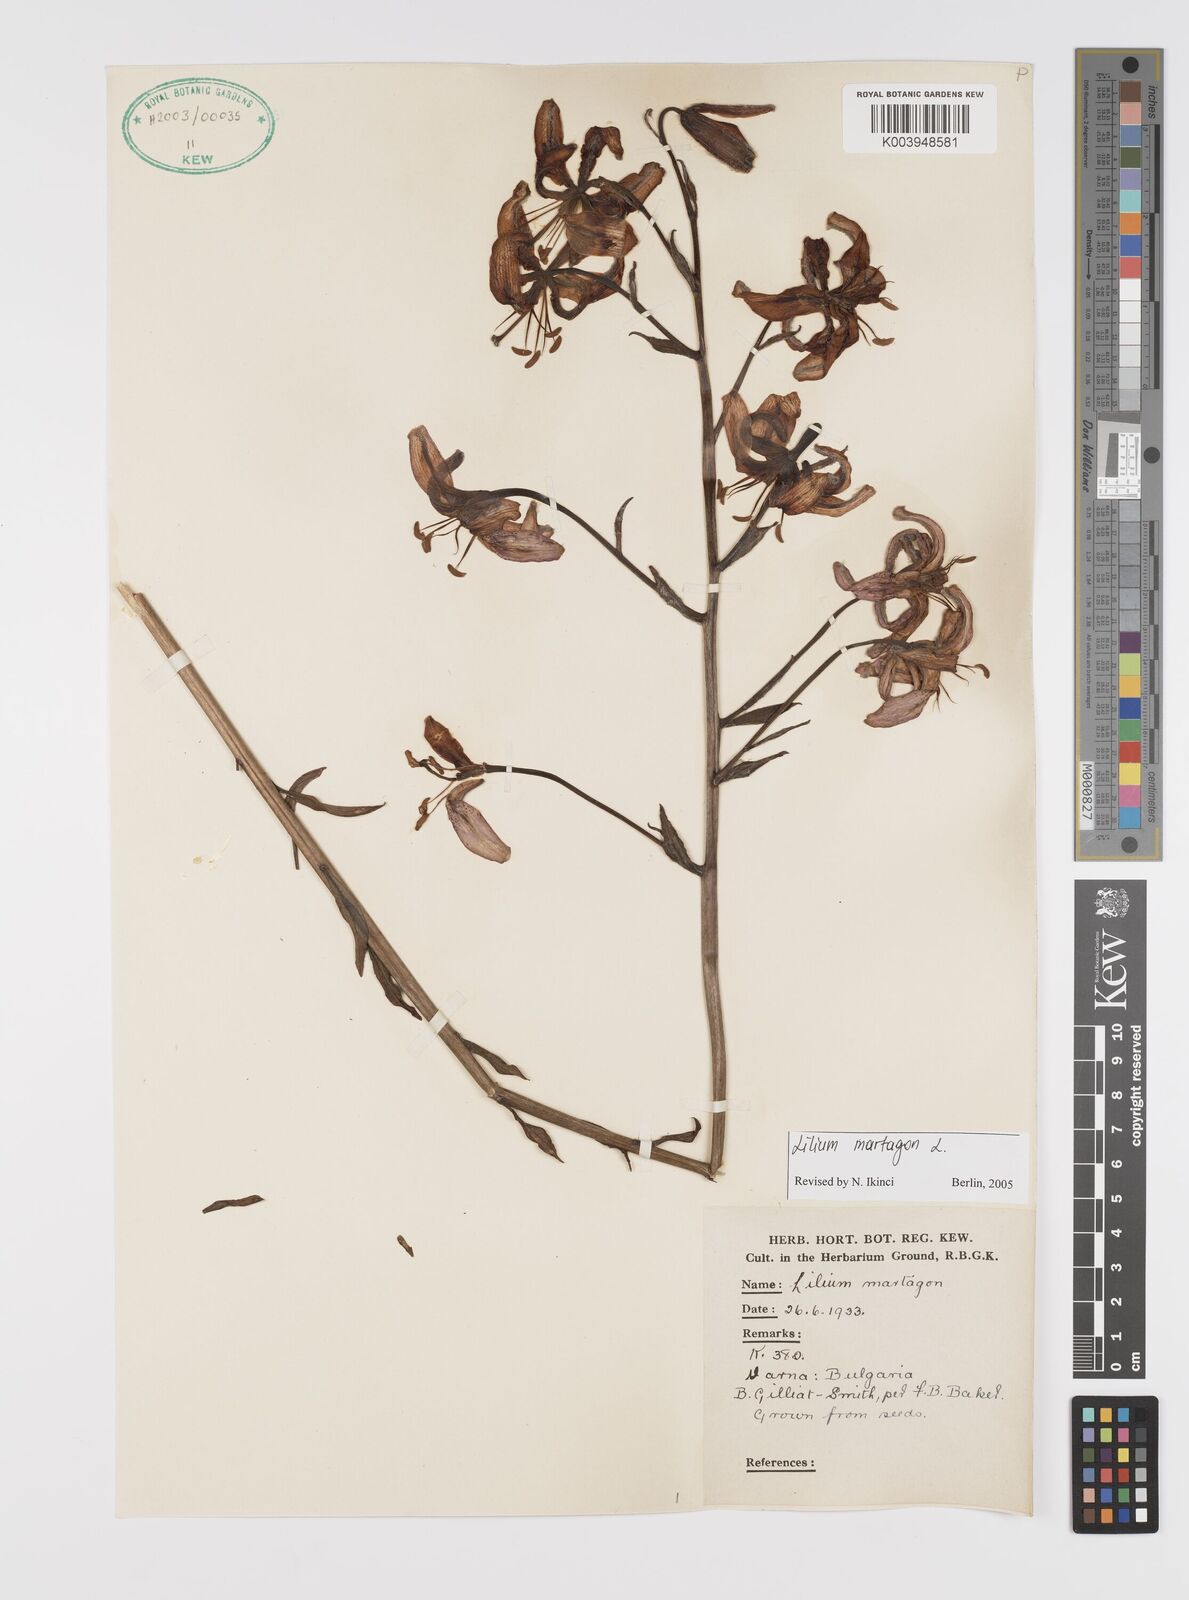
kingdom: Plantae
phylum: Tracheophyta
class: Liliopsida
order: Liliales
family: Liliaceae
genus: Lilium
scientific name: Lilium martagon
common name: Martagon lily
